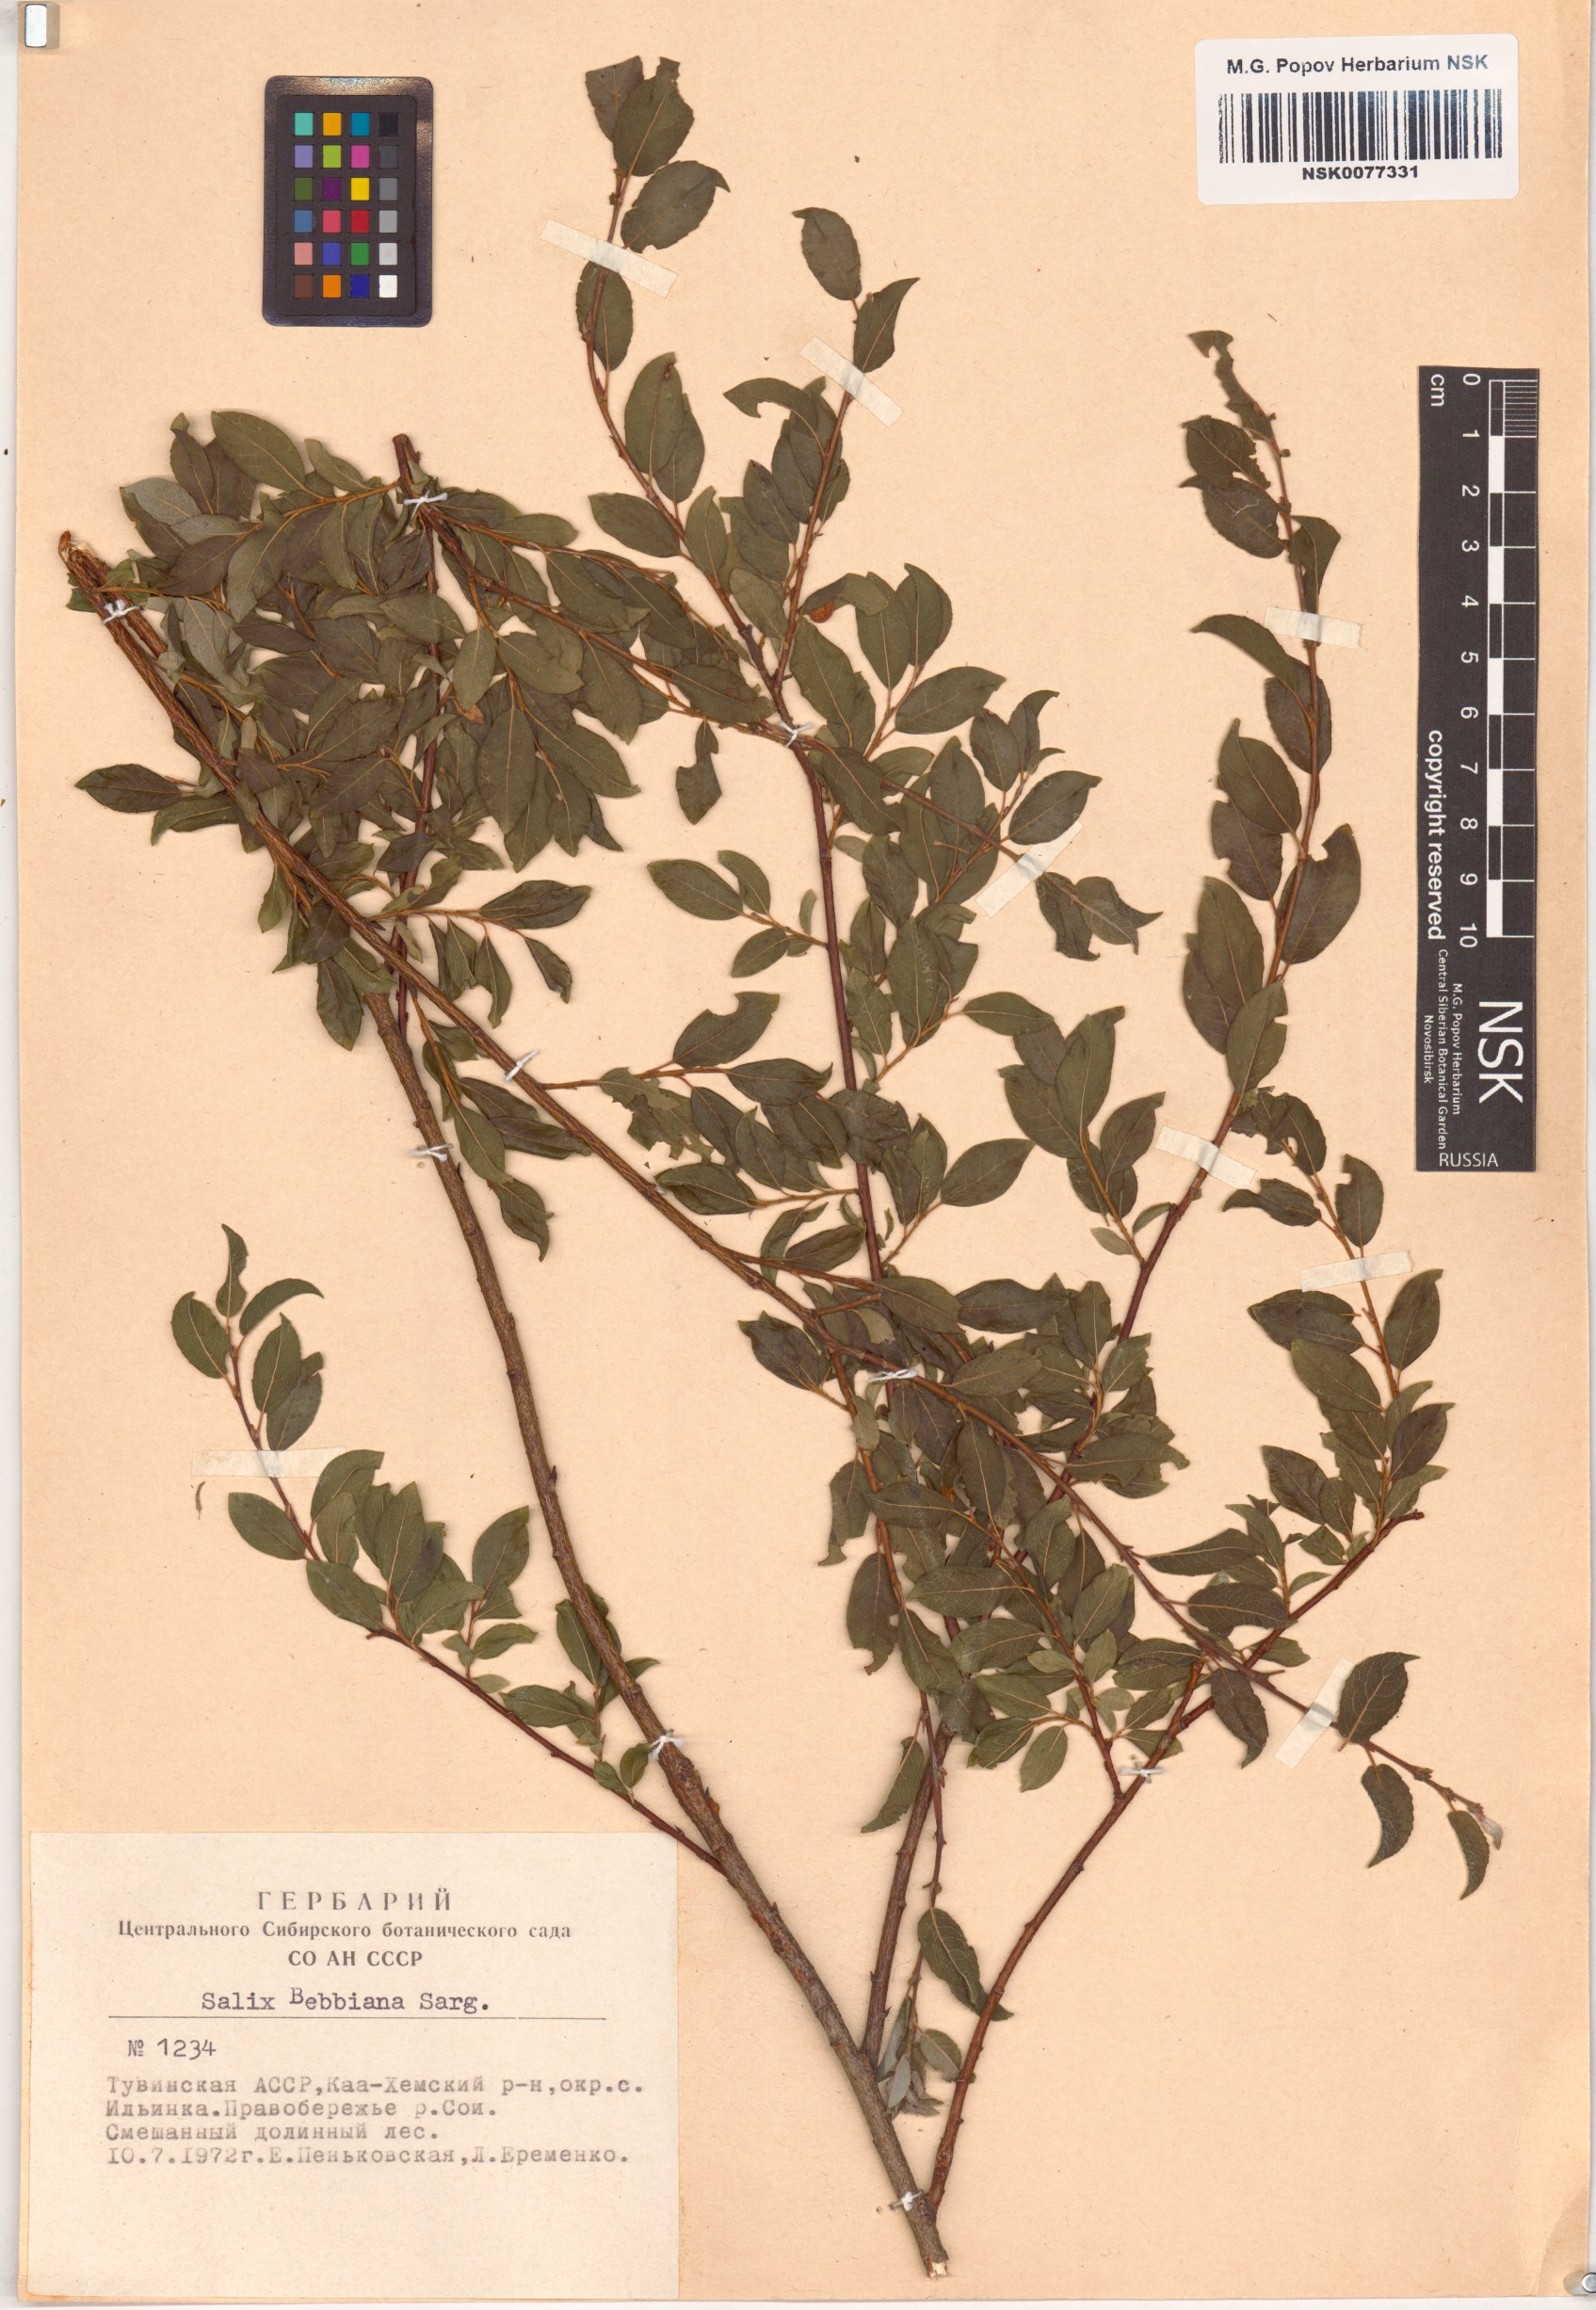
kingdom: Plantae
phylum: Tracheophyta
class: Magnoliopsida
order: Malpighiales
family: Salicaceae
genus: Salix
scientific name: Salix bebbiana
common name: Bebb's willow
